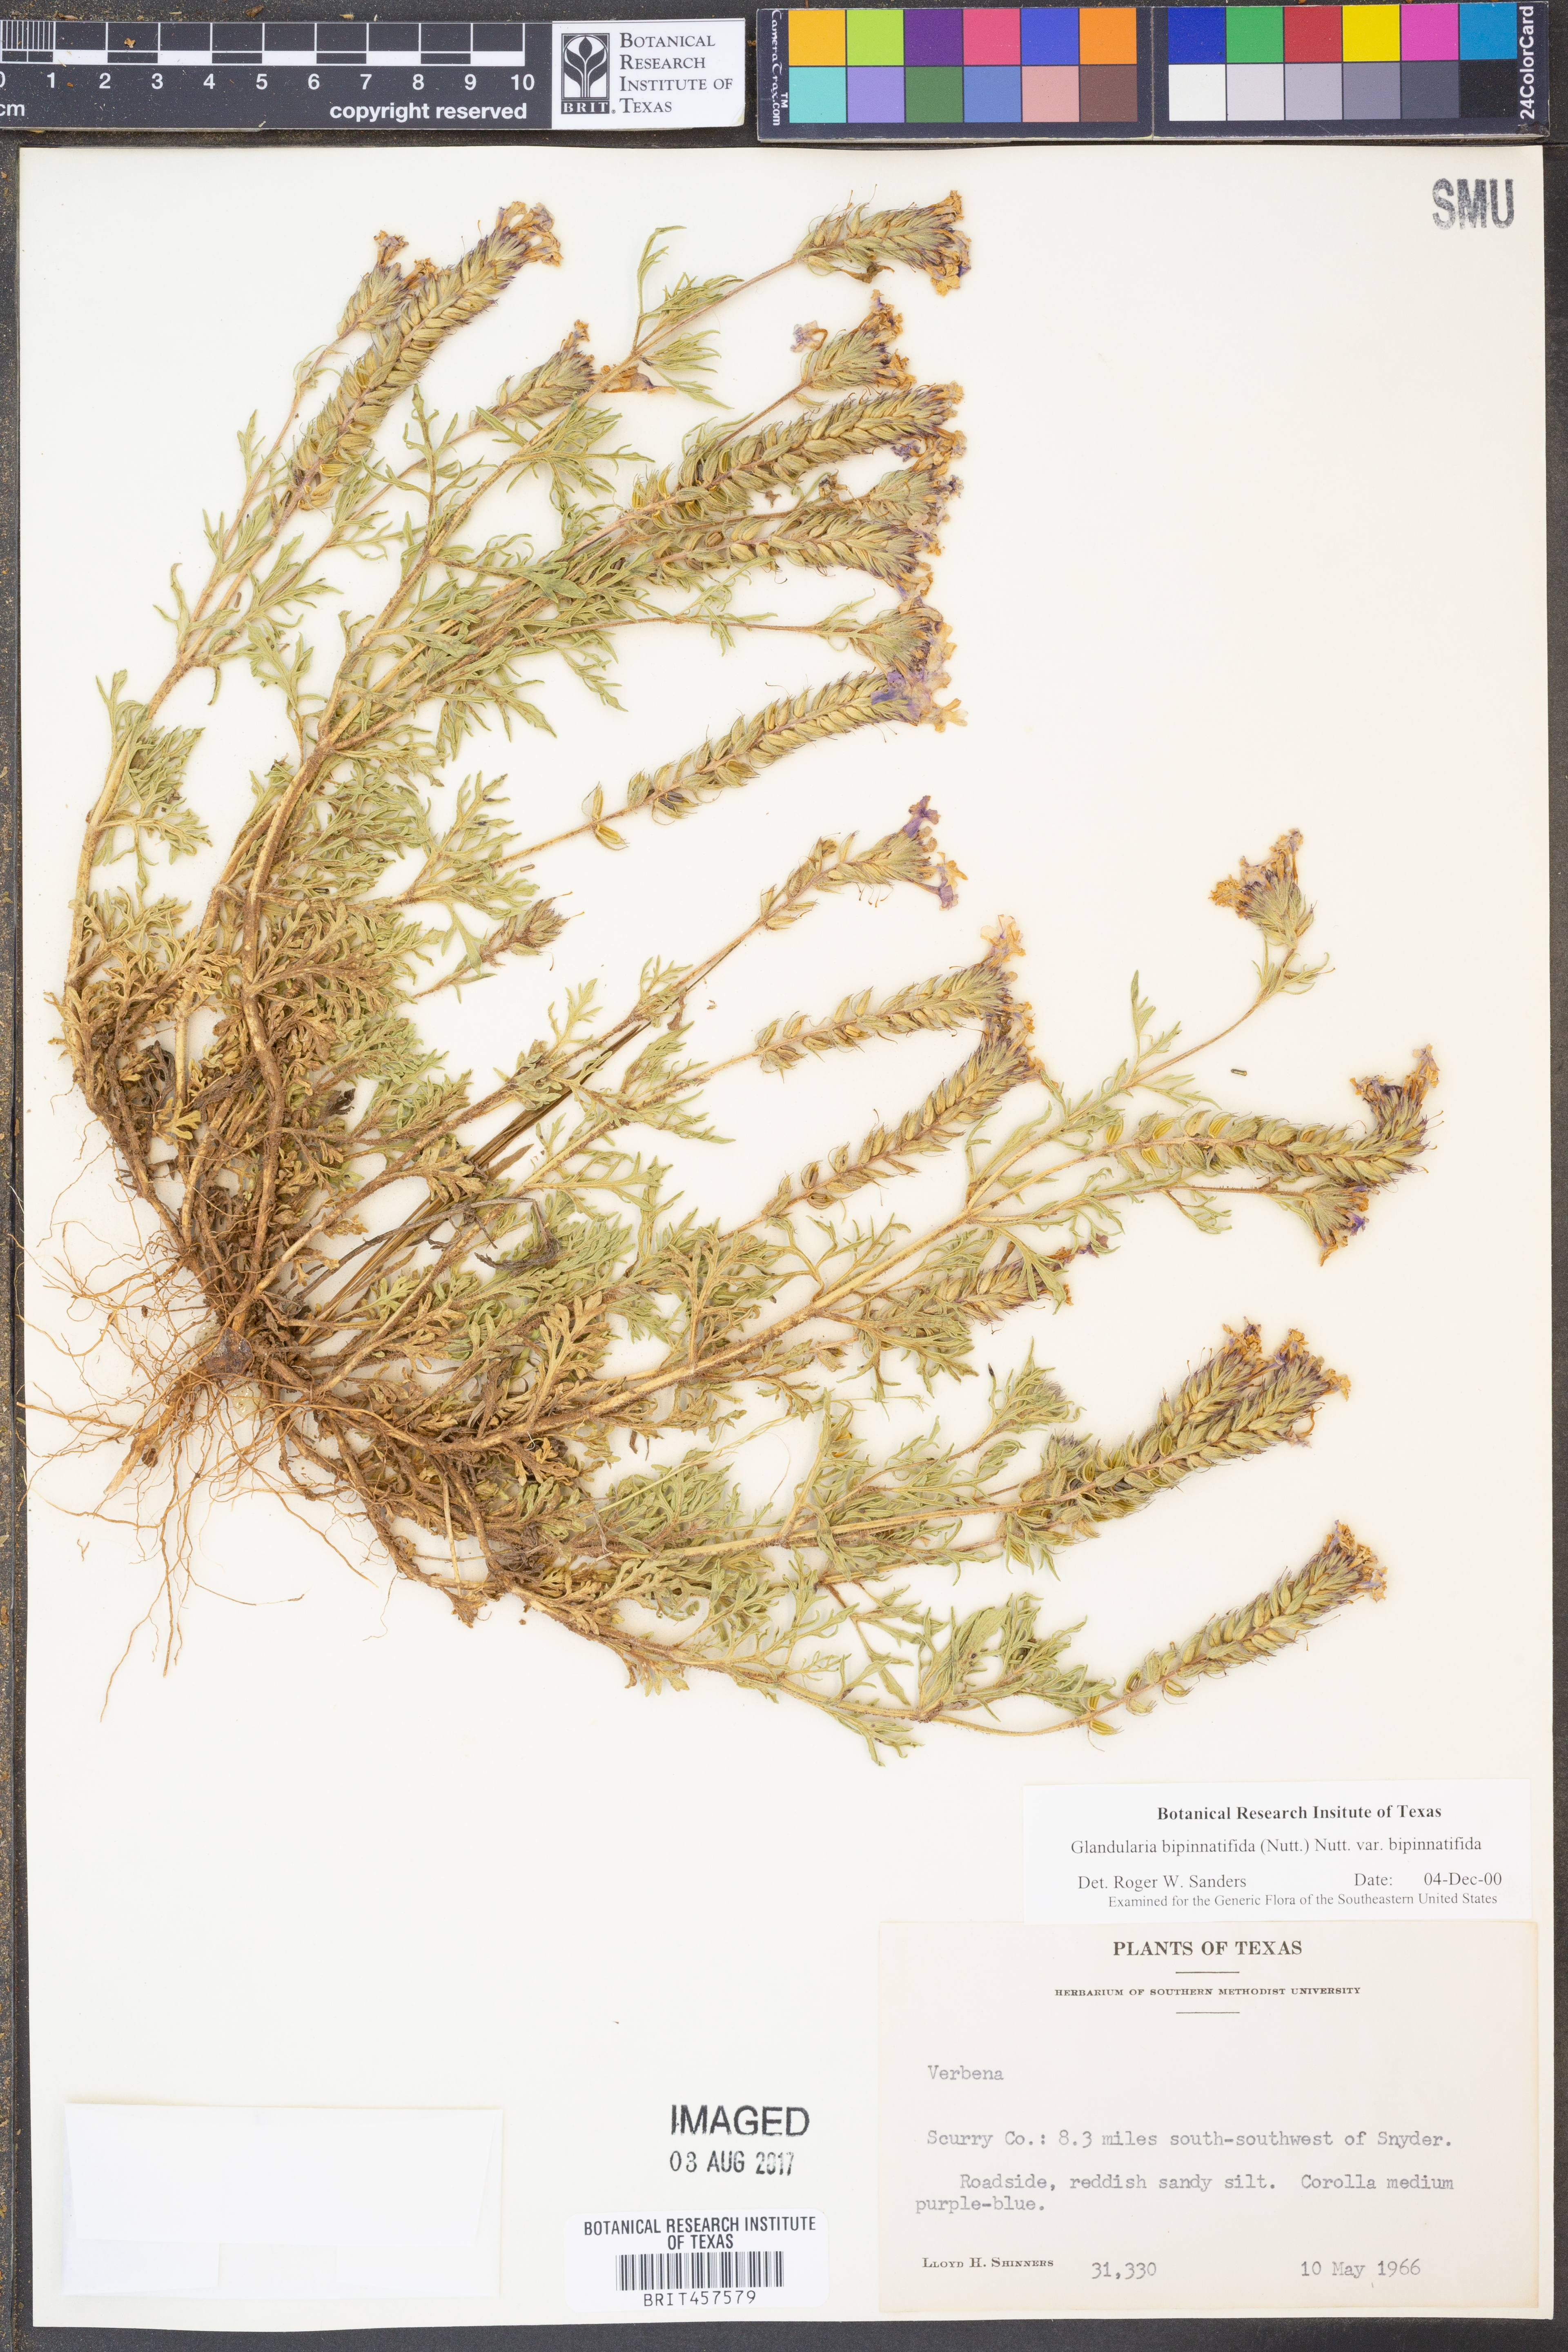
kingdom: Plantae
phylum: Tracheophyta
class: Magnoliopsida
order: Lamiales
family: Verbenaceae
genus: Verbena
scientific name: Verbena bipinnatifida
